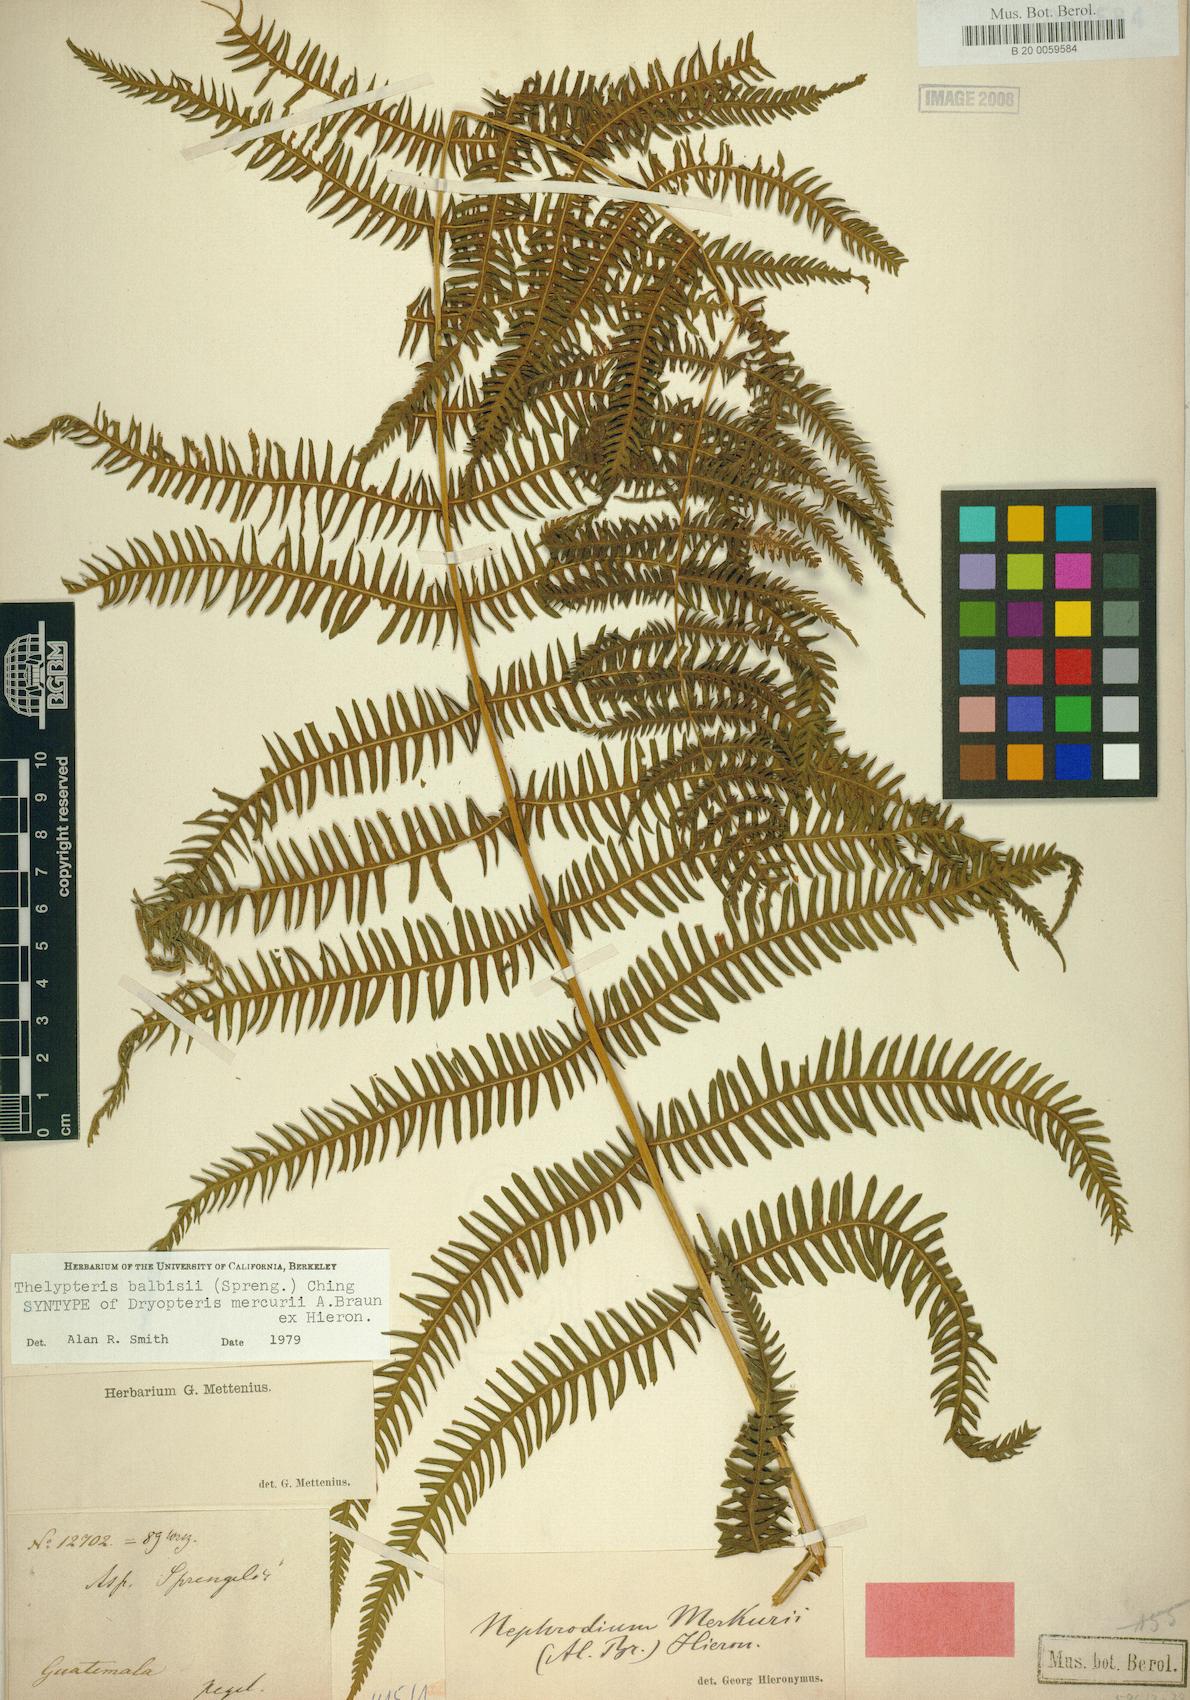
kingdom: Plantae
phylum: Tracheophyta
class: Polypodiopsida
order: Polypodiales
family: Thelypteridaceae
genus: Amauropelta
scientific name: Amauropelta balbisii
